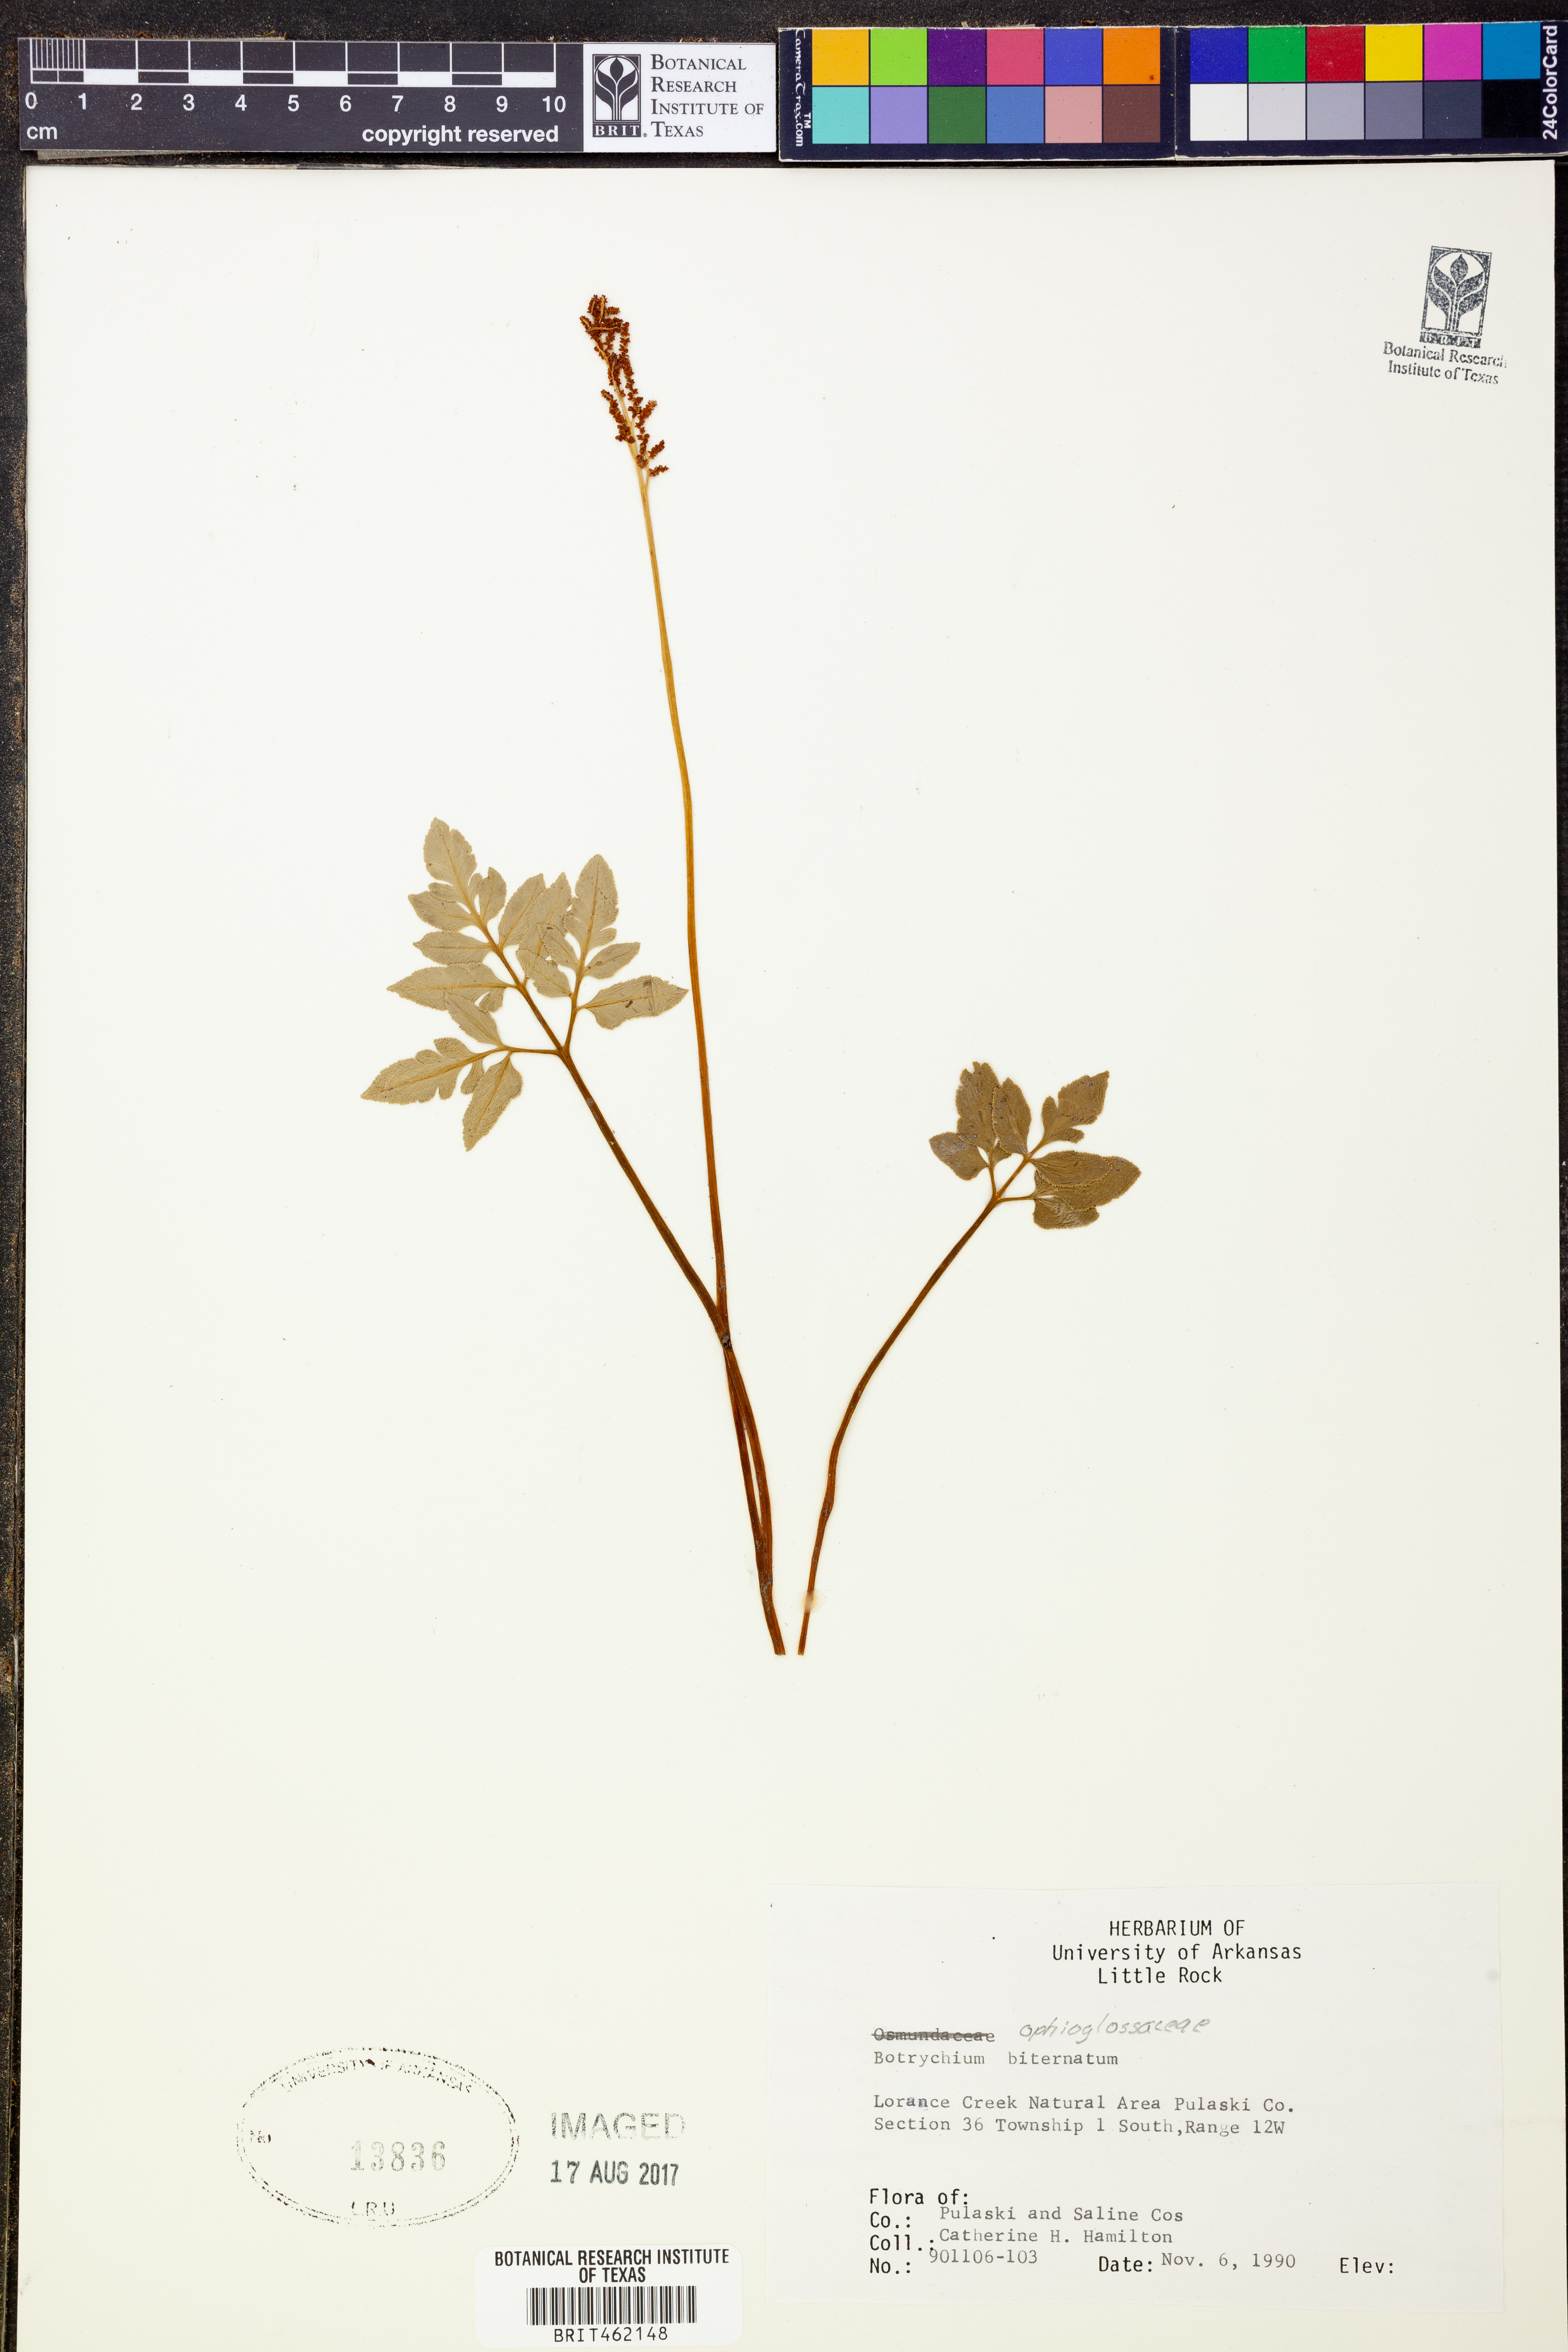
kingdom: Plantae
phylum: Tracheophyta
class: Polypodiopsida
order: Ophioglossales
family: Ophioglossaceae
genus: Sceptridium
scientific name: Sceptridium biternatum
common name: Sparse-lobed grapefern
